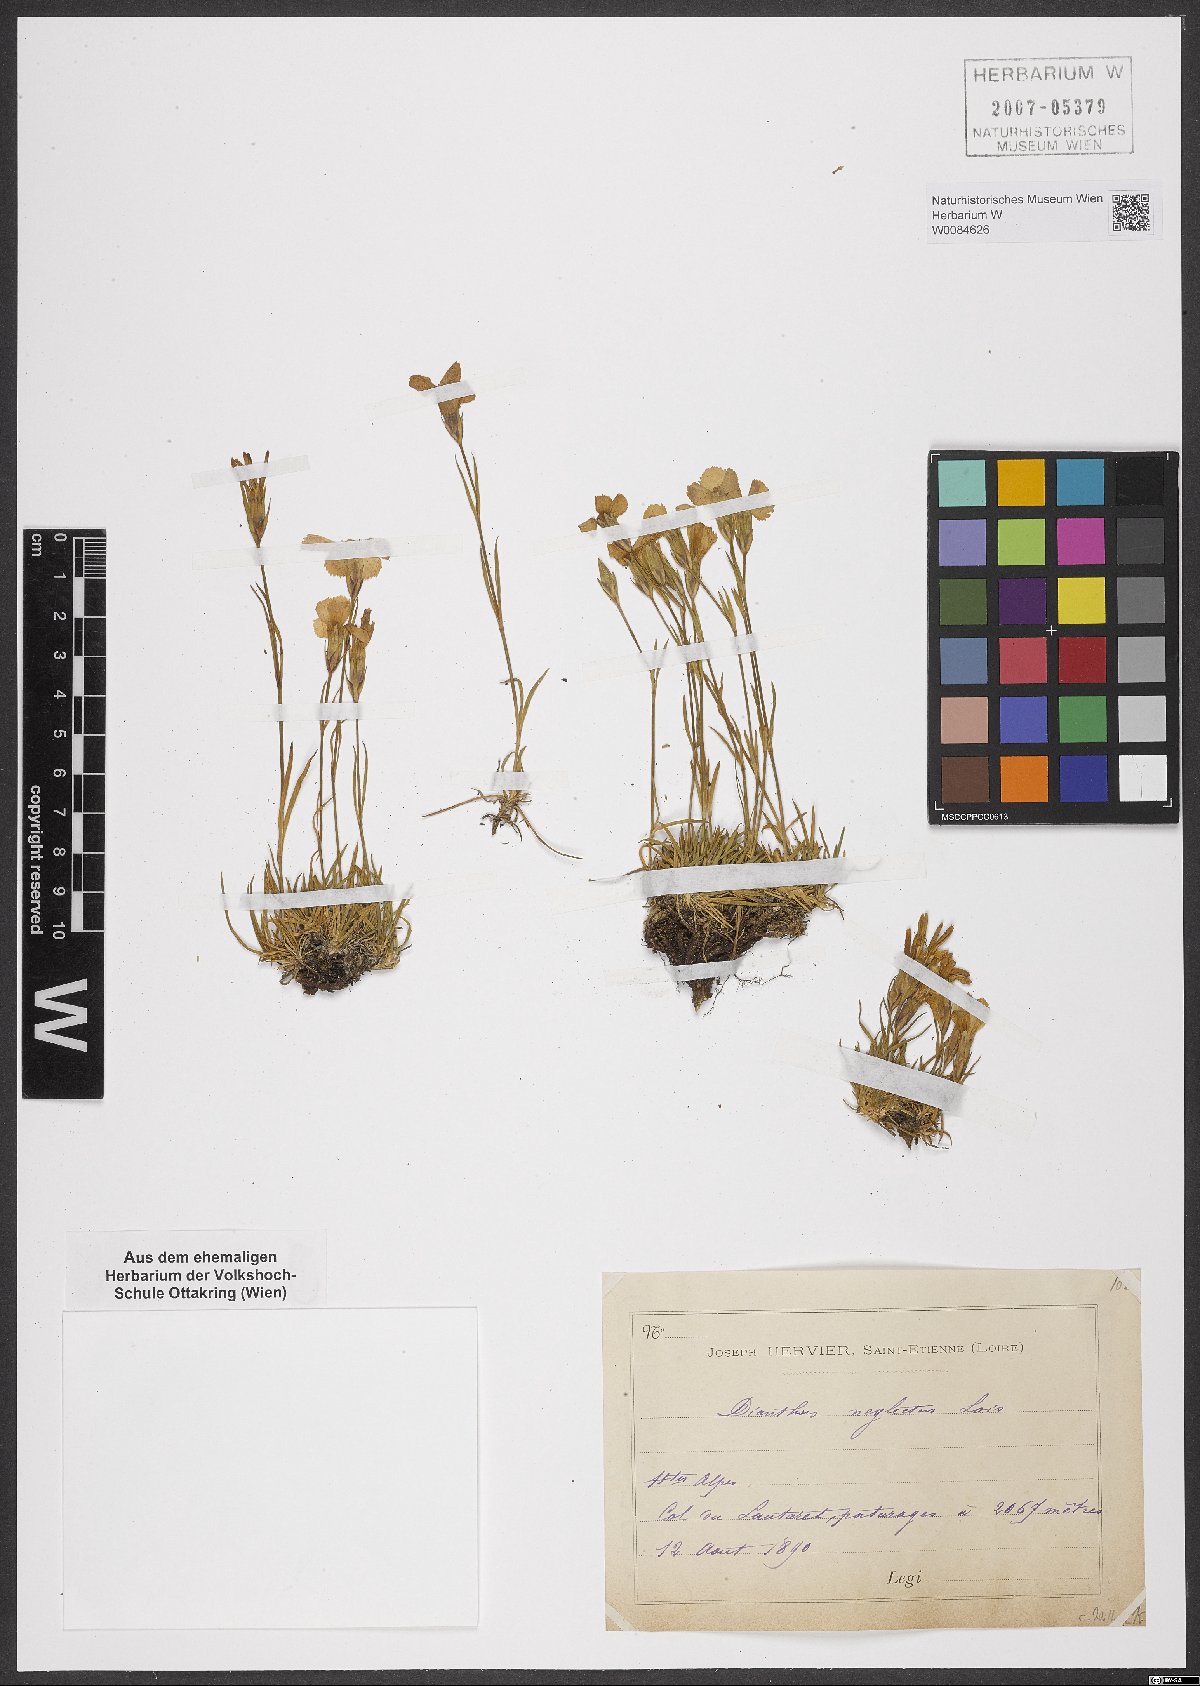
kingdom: Plantae
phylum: Tracheophyta
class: Magnoliopsida
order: Caryophyllales
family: Caryophyllaceae
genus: Dianthus
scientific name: Dianthus seguieri
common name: Ragged pink
